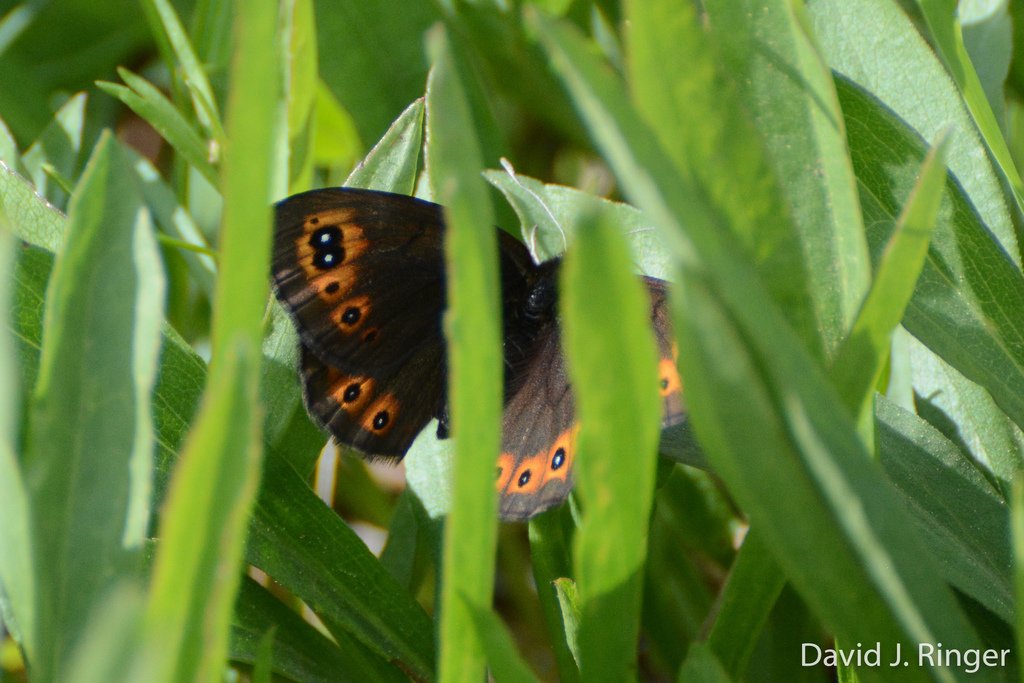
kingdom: Animalia
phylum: Arthropoda
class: Insecta
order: Lepidoptera
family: Nymphalidae
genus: Erebia
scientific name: Erebia epipsodea
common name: Common Alpine
